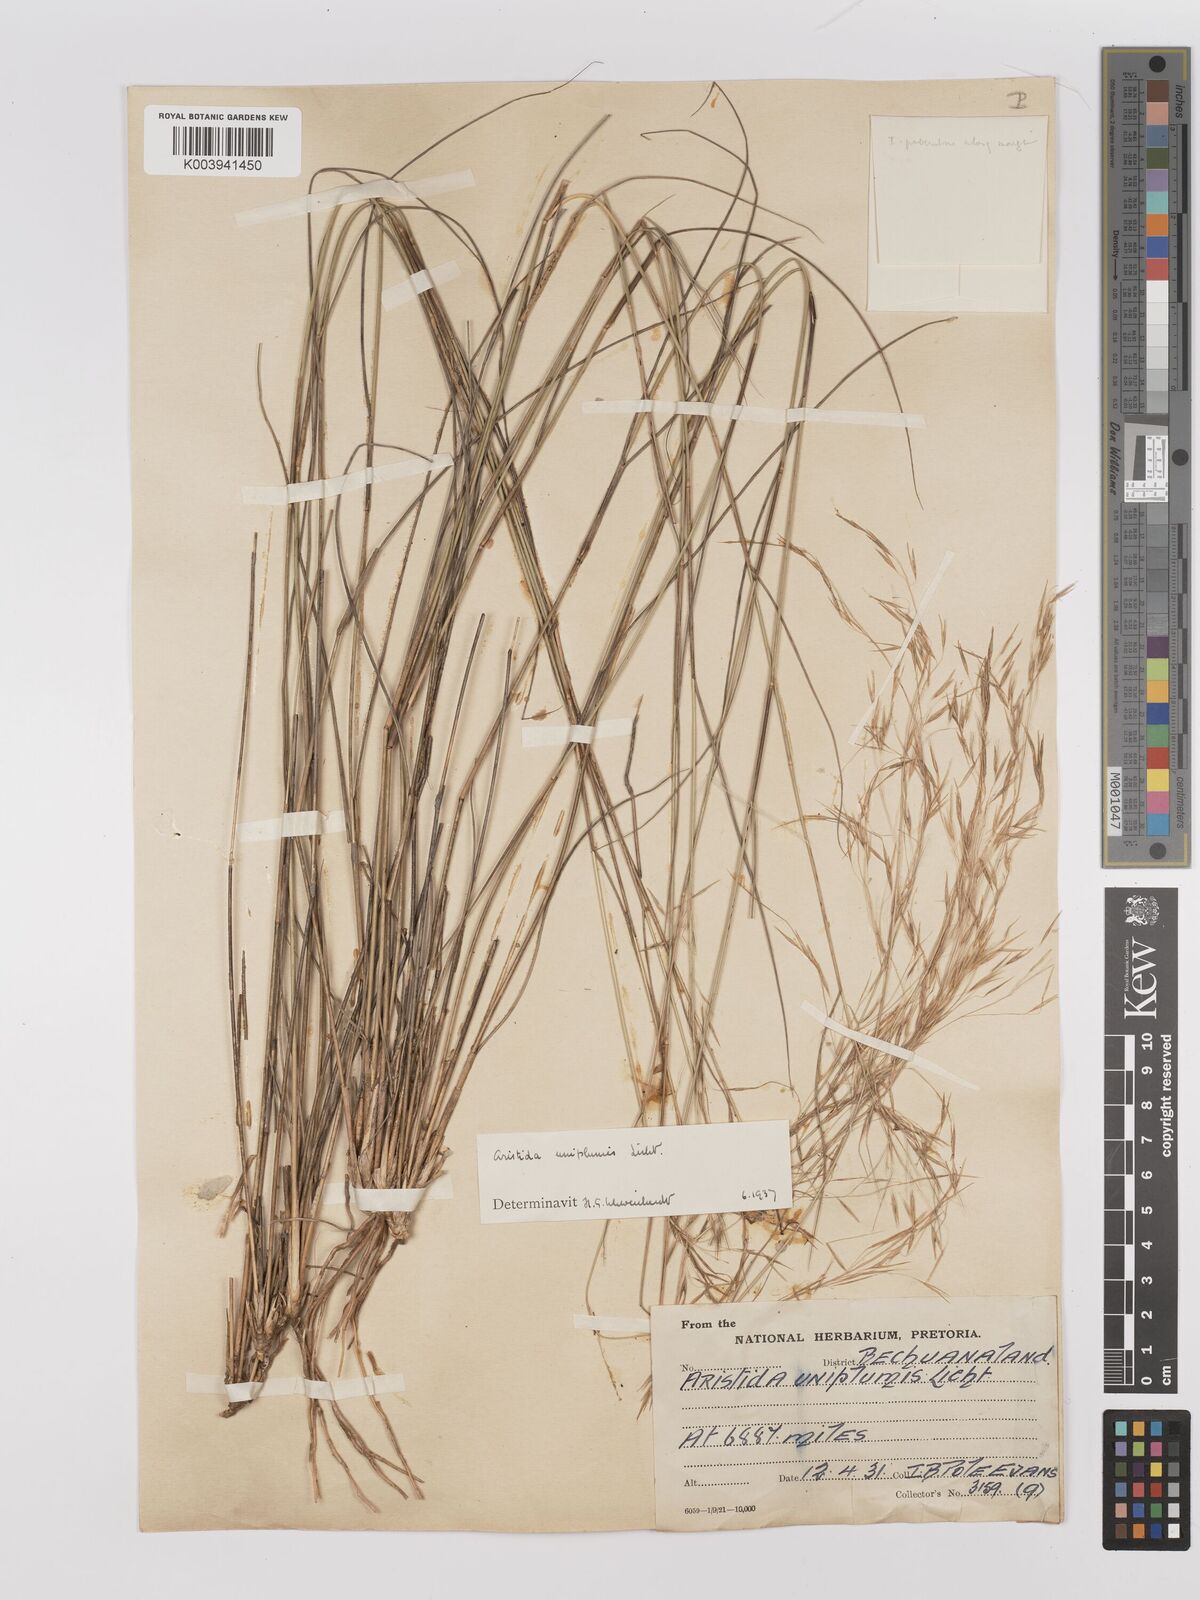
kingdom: Plantae
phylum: Tracheophyta
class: Liliopsida
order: Poales
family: Poaceae
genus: Stipagrostis
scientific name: Stipagrostis uniplumis
